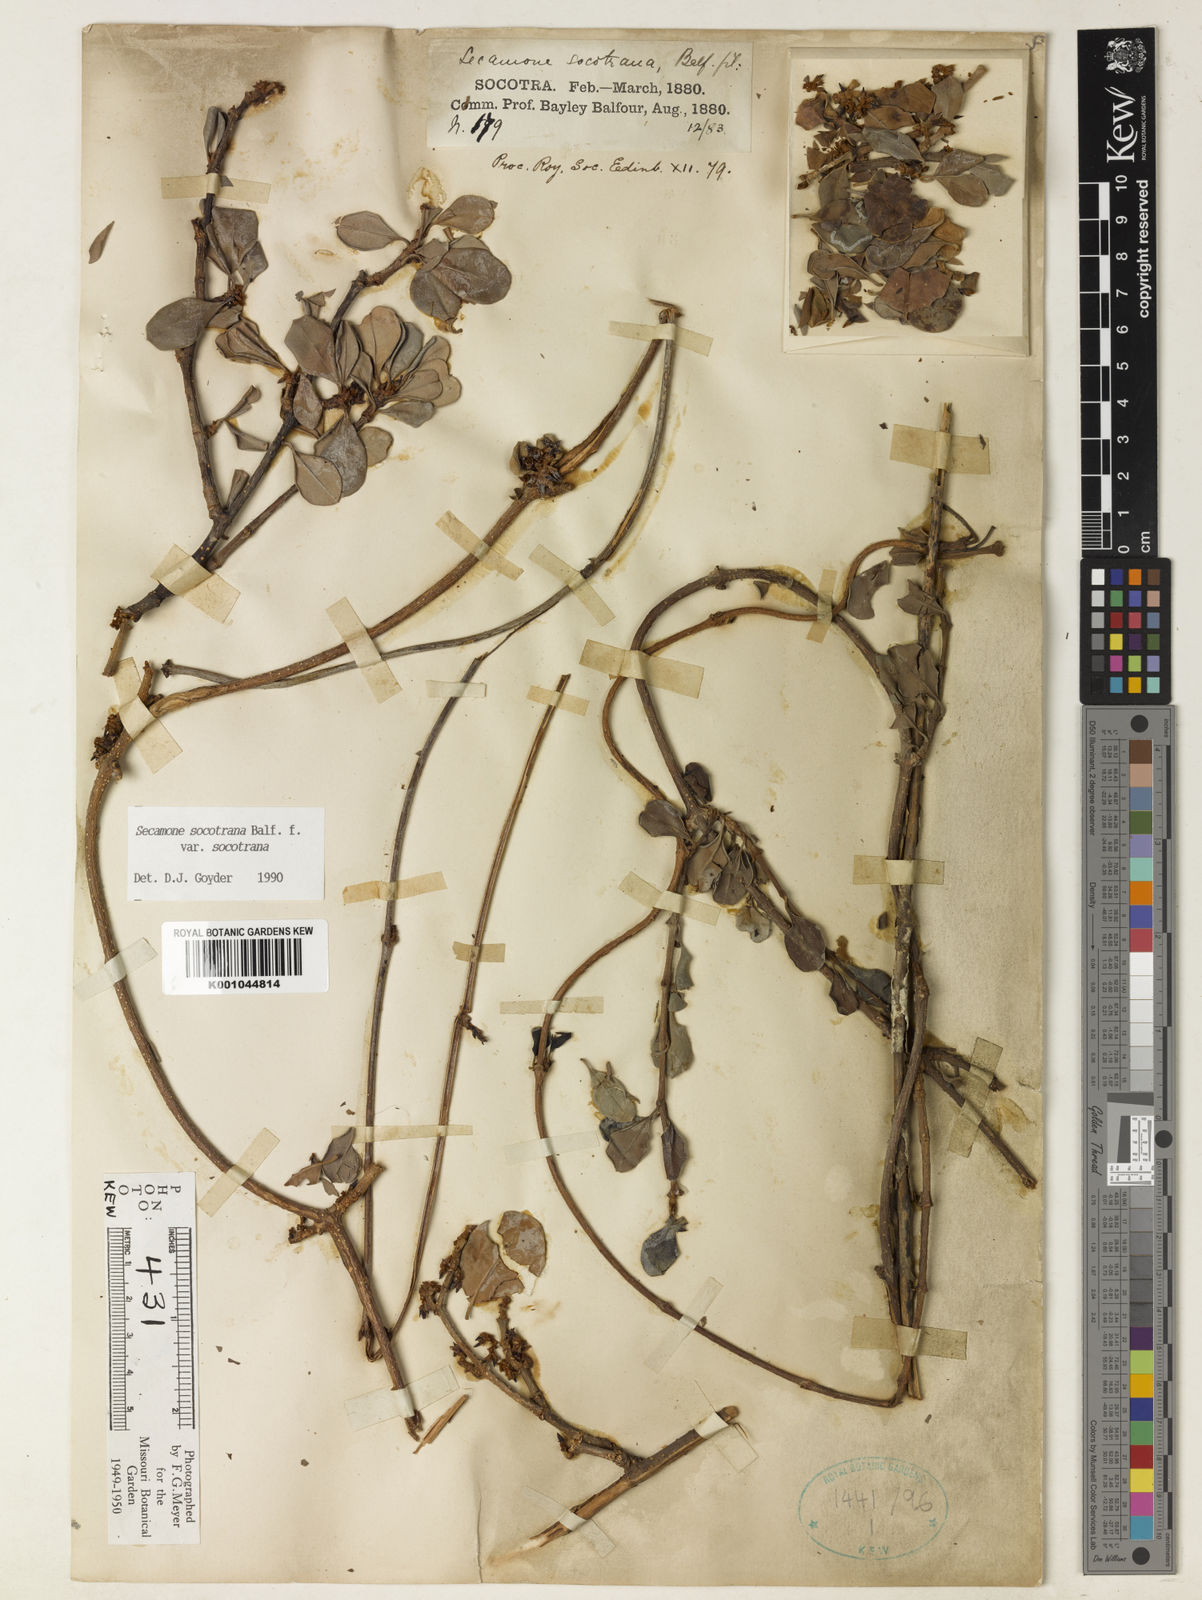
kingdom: Plantae
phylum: Tracheophyta
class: Magnoliopsida
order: Gentianales
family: Apocynaceae
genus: Secamone
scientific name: Secamone socotrana
